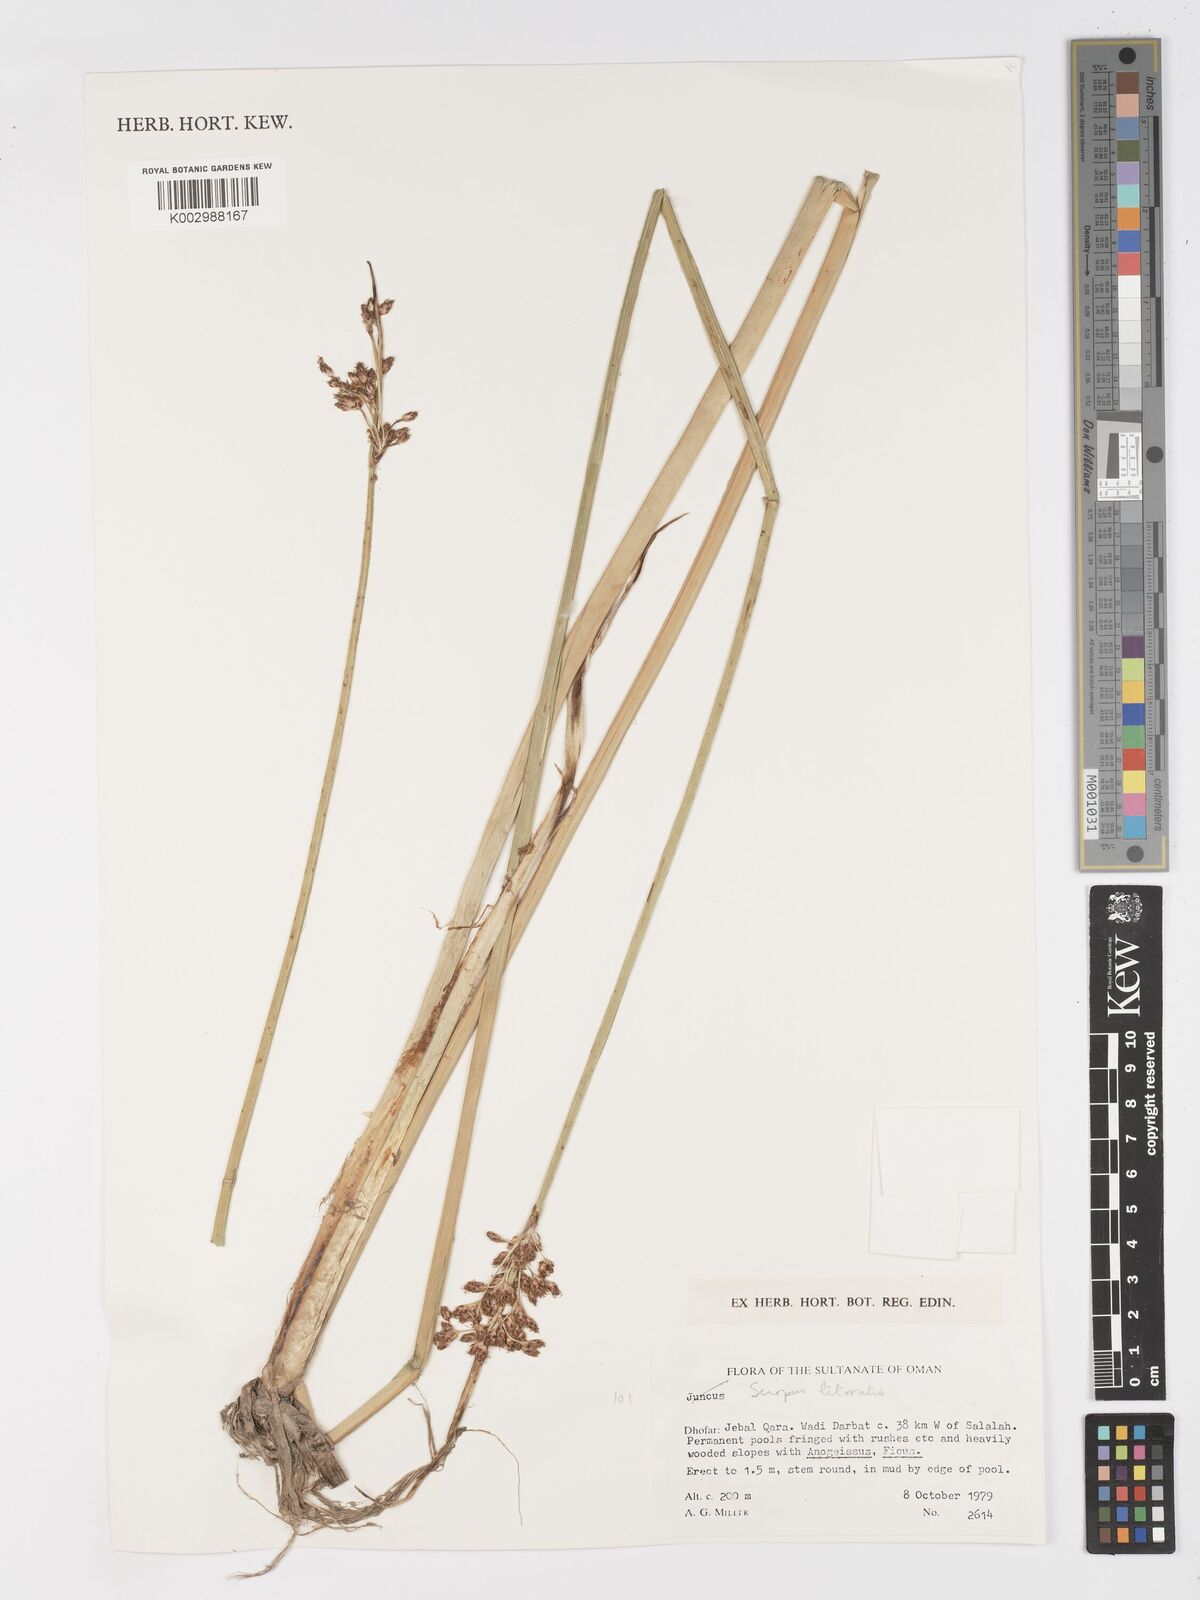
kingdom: Plantae
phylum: Tracheophyta
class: Liliopsida
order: Poales
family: Cyperaceae
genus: Schoenoplectus
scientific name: Schoenoplectus litoralis
